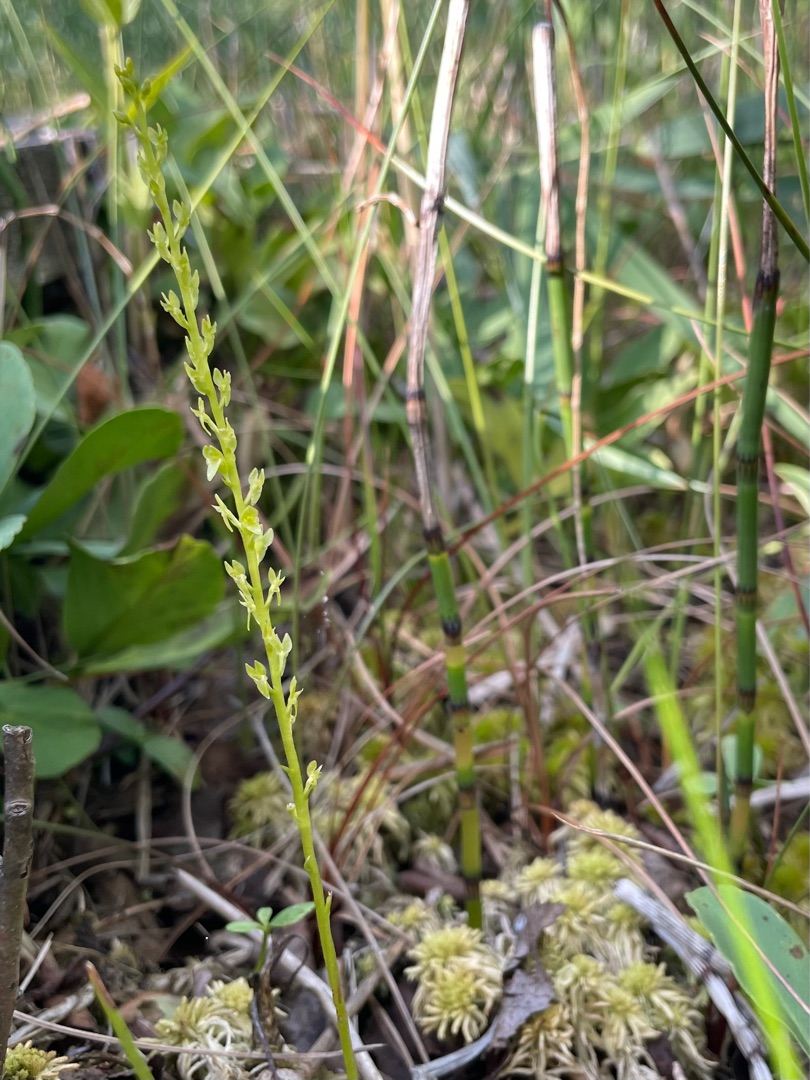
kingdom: Plantae
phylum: Tracheophyta
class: Liliopsida
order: Asparagales
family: Orchidaceae
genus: Hammarbya
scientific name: Hammarbya paludosa
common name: Hjertelæbe
